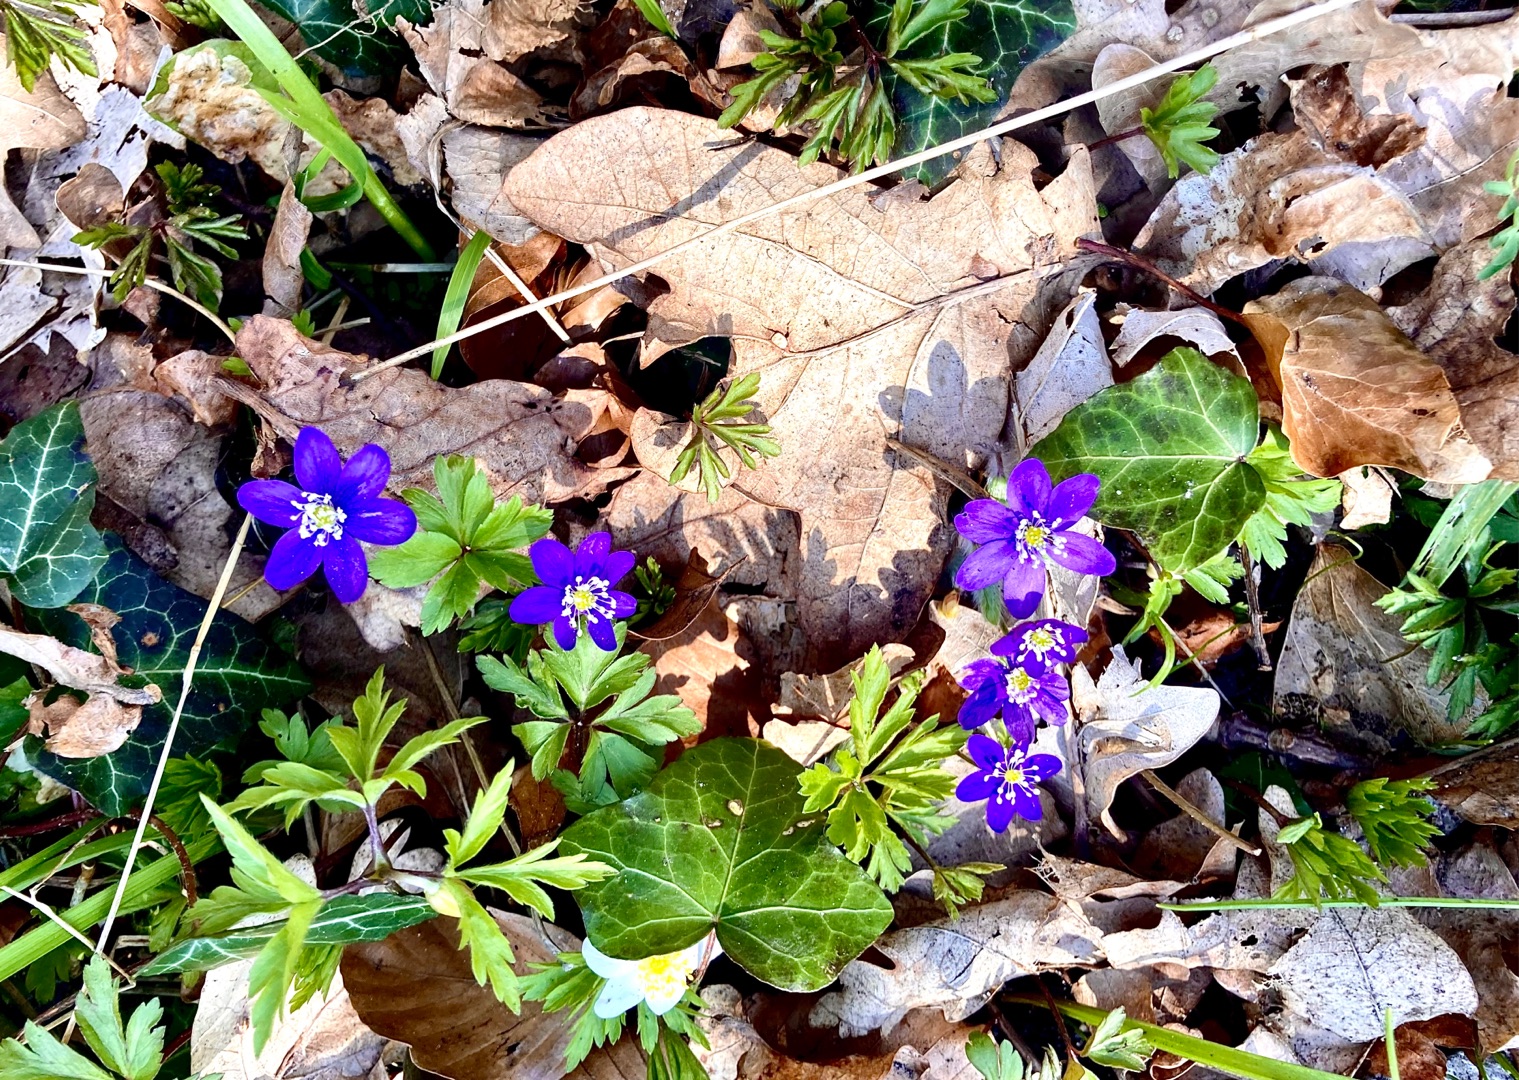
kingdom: Plantae
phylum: Tracheophyta
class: Magnoliopsida
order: Ranunculales
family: Ranunculaceae
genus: Hepatica
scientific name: Hepatica nobilis
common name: Blå anemone
